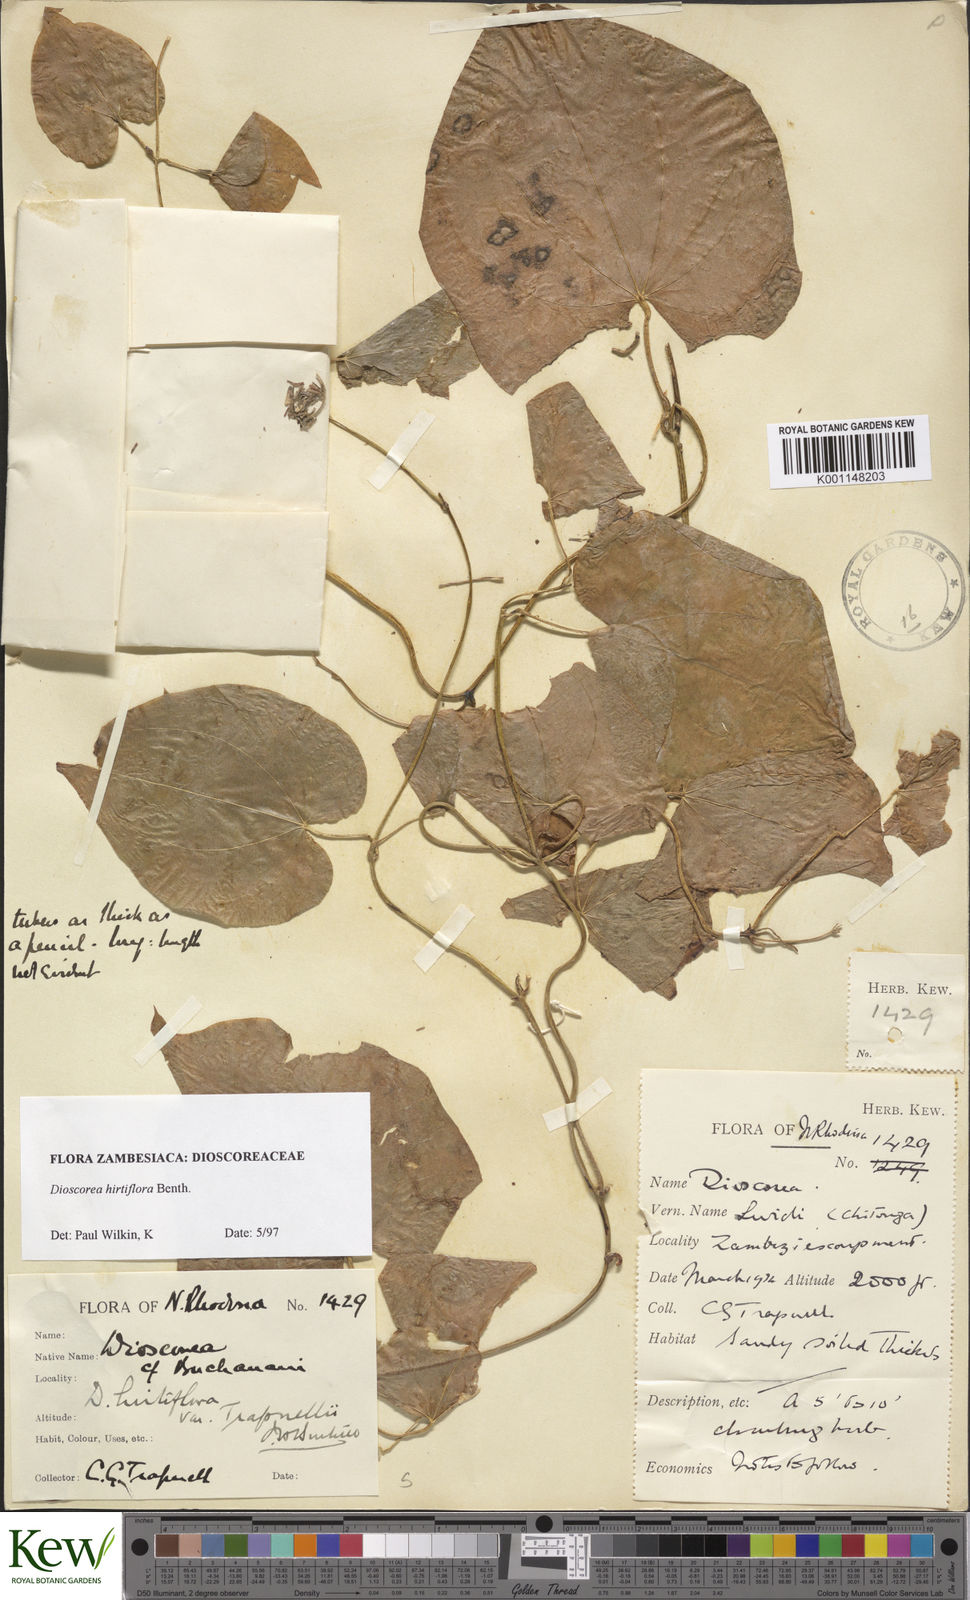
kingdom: Plantae
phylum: Tracheophyta
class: Liliopsida
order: Dioscoreales
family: Dioscoreaceae
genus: Dioscorea
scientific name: Dioscorea hirtiflora
